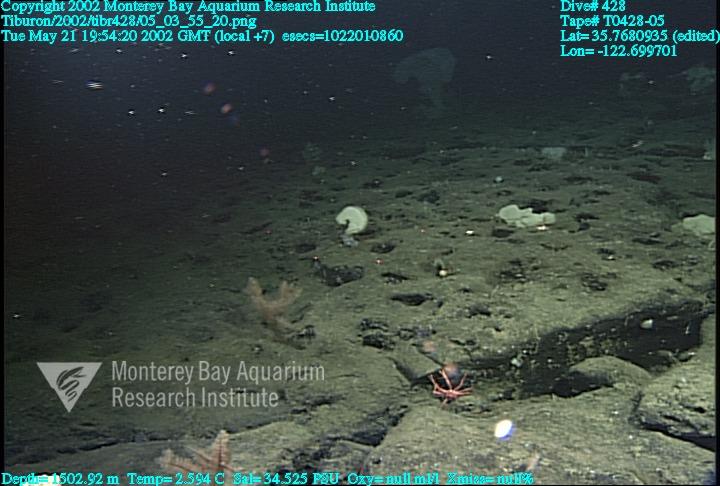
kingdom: Animalia
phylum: Porifera
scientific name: Porifera
